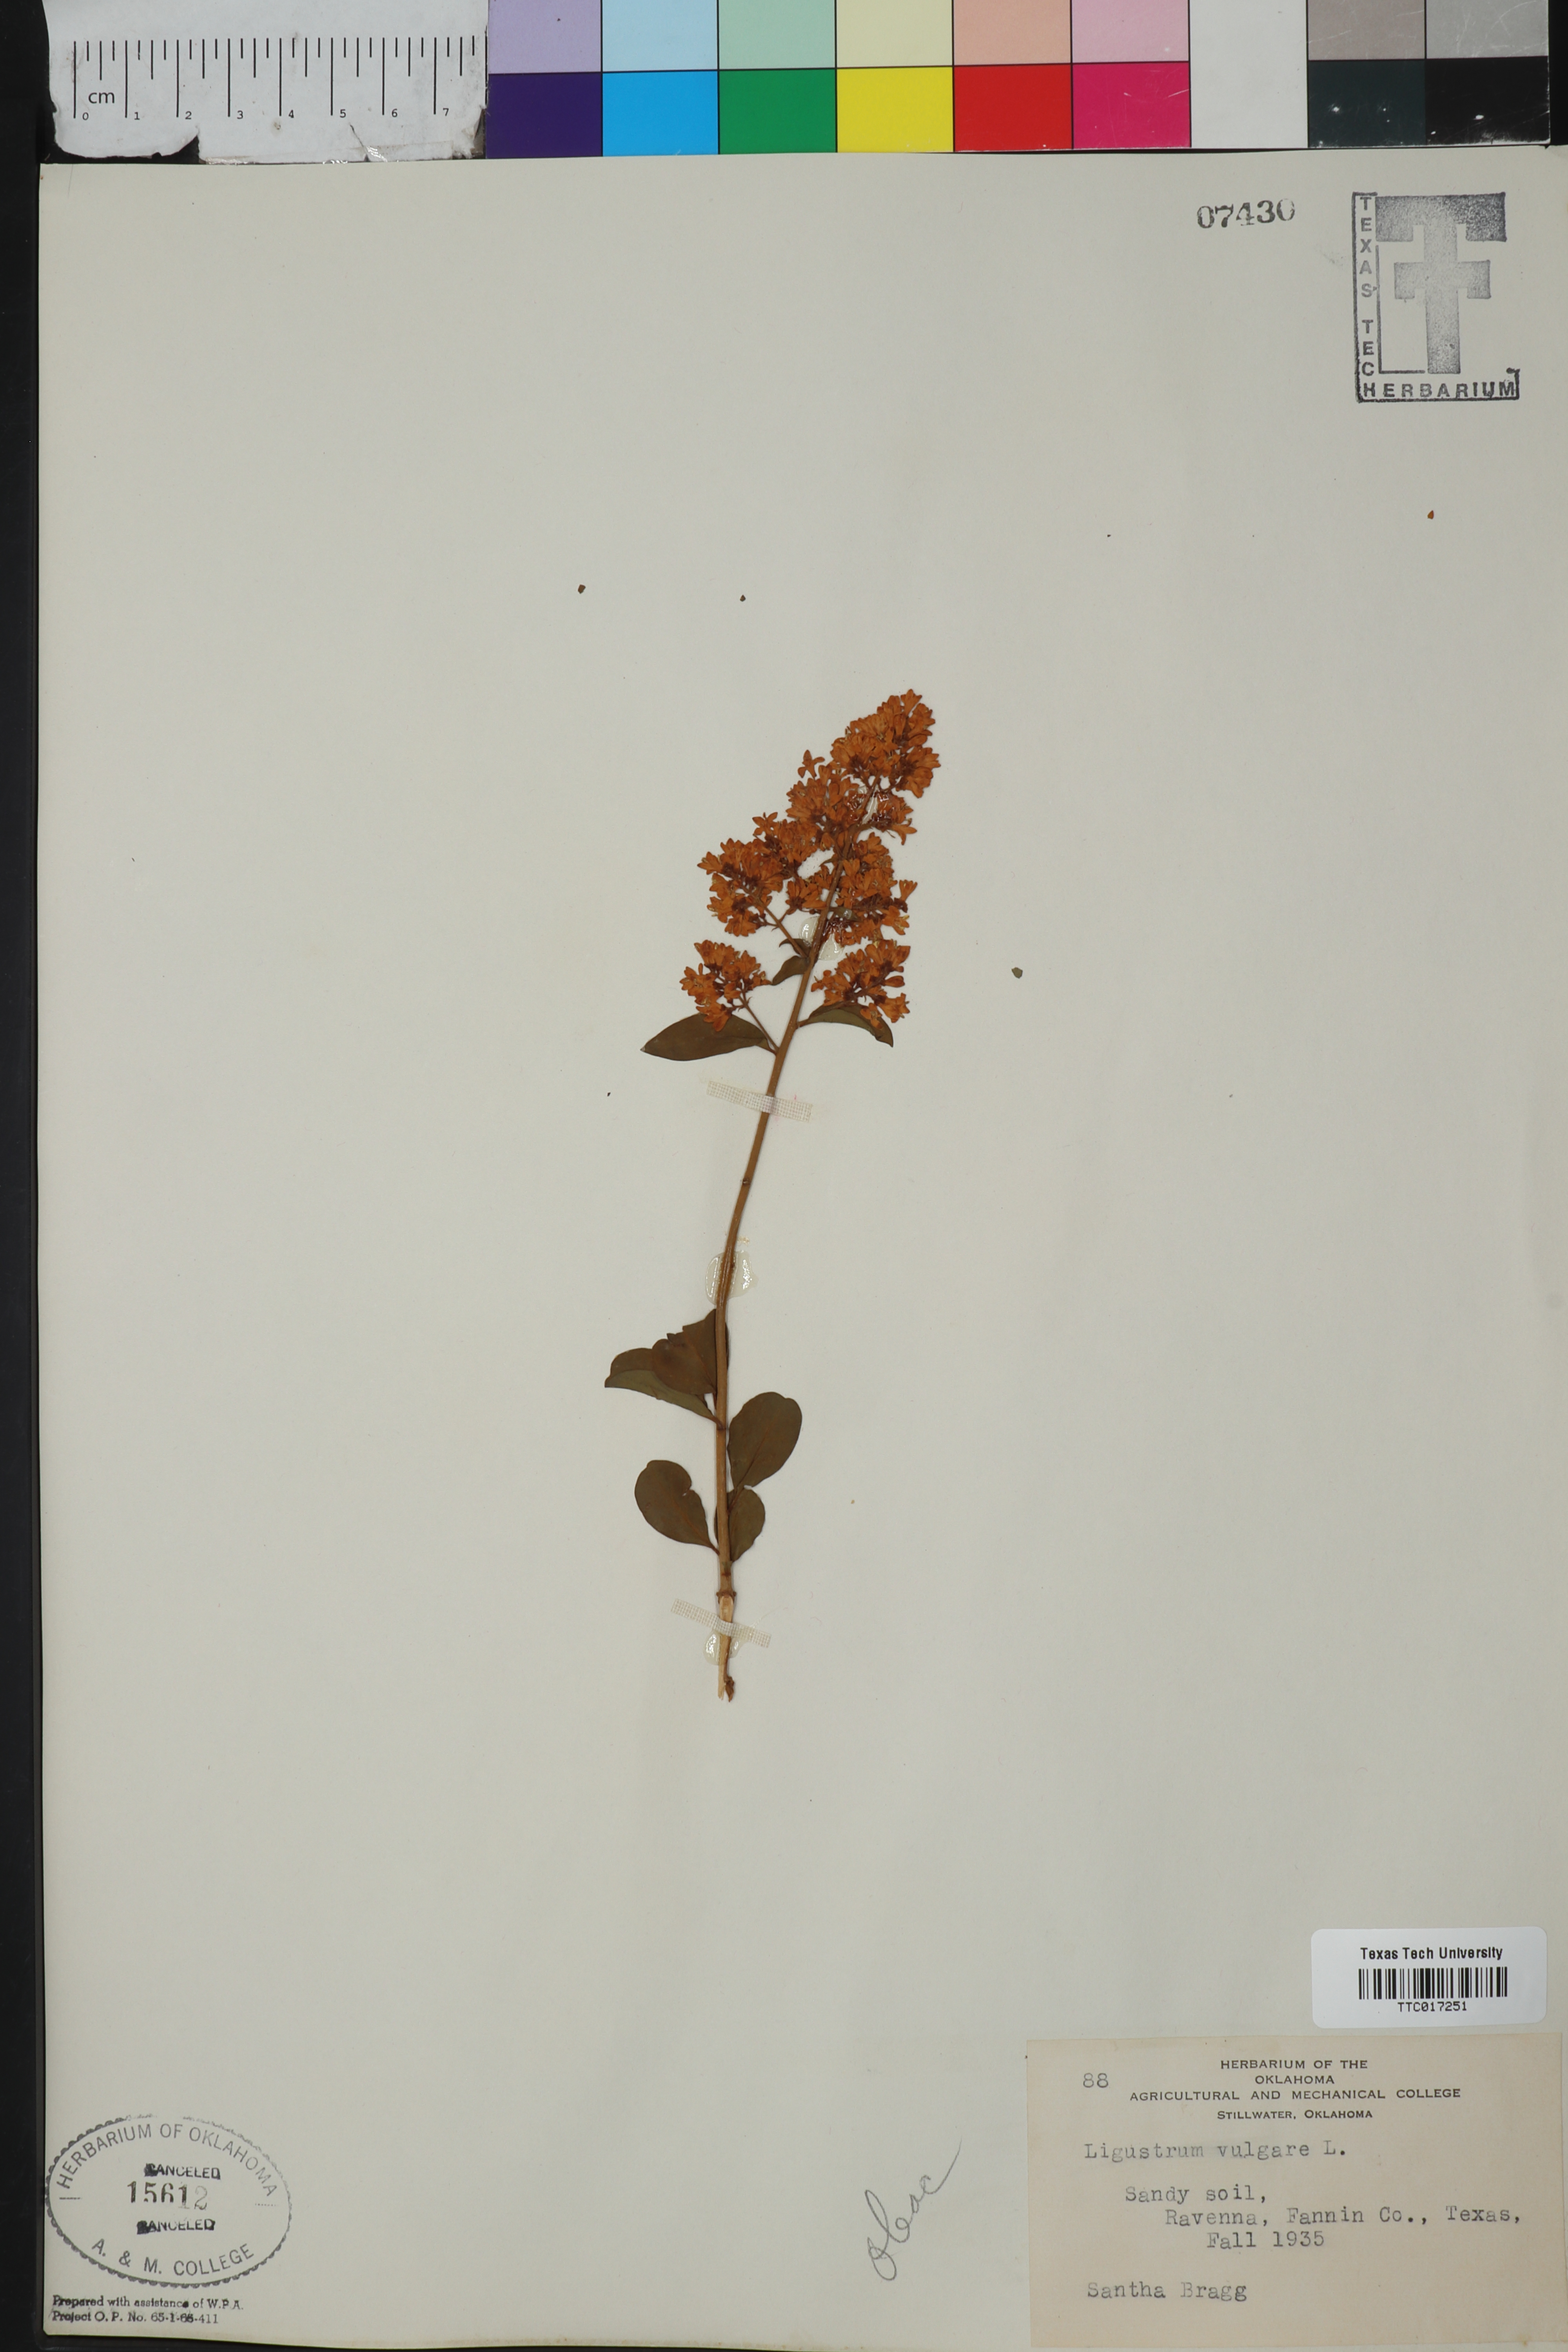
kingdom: Plantae
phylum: Tracheophyta
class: Magnoliopsida
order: Lamiales
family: Oleaceae
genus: Ligustrum
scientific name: Ligustrum vulgare
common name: Wild privet
